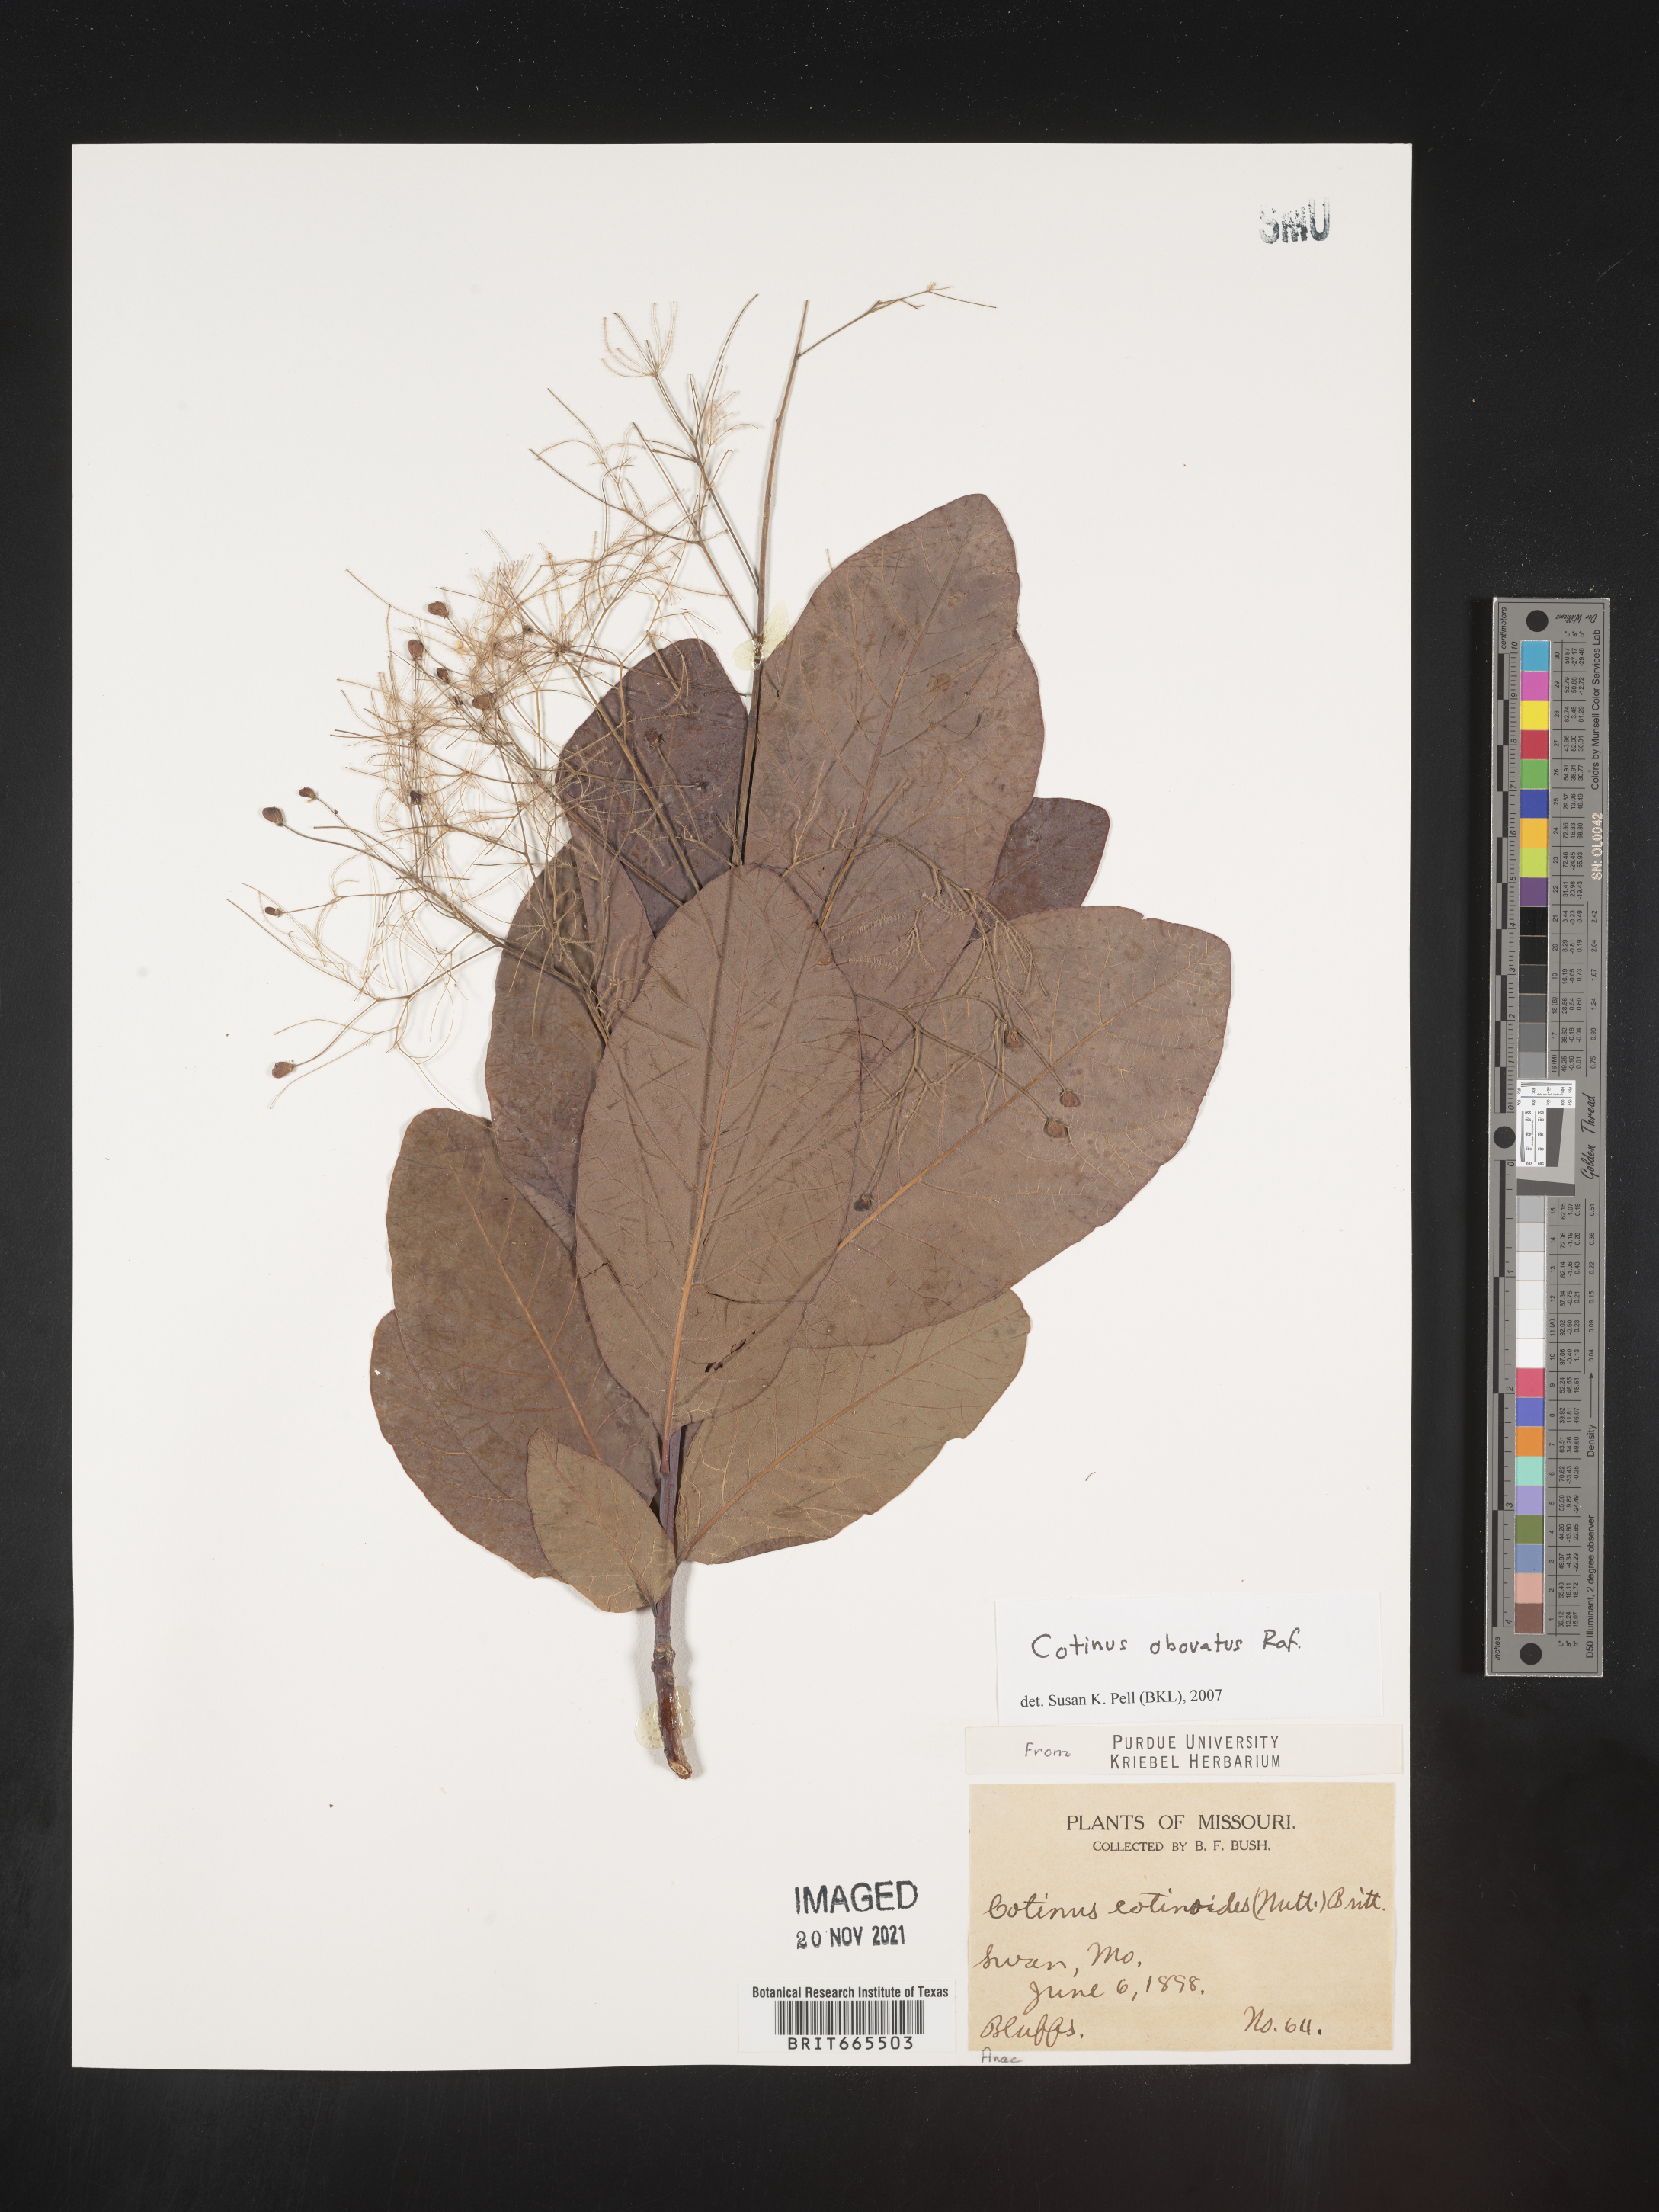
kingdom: Plantae
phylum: Tracheophyta
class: Magnoliopsida
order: Sapindales
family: Anacardiaceae
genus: Cotinus
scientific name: Cotinus obovatus
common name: Chittamwood
